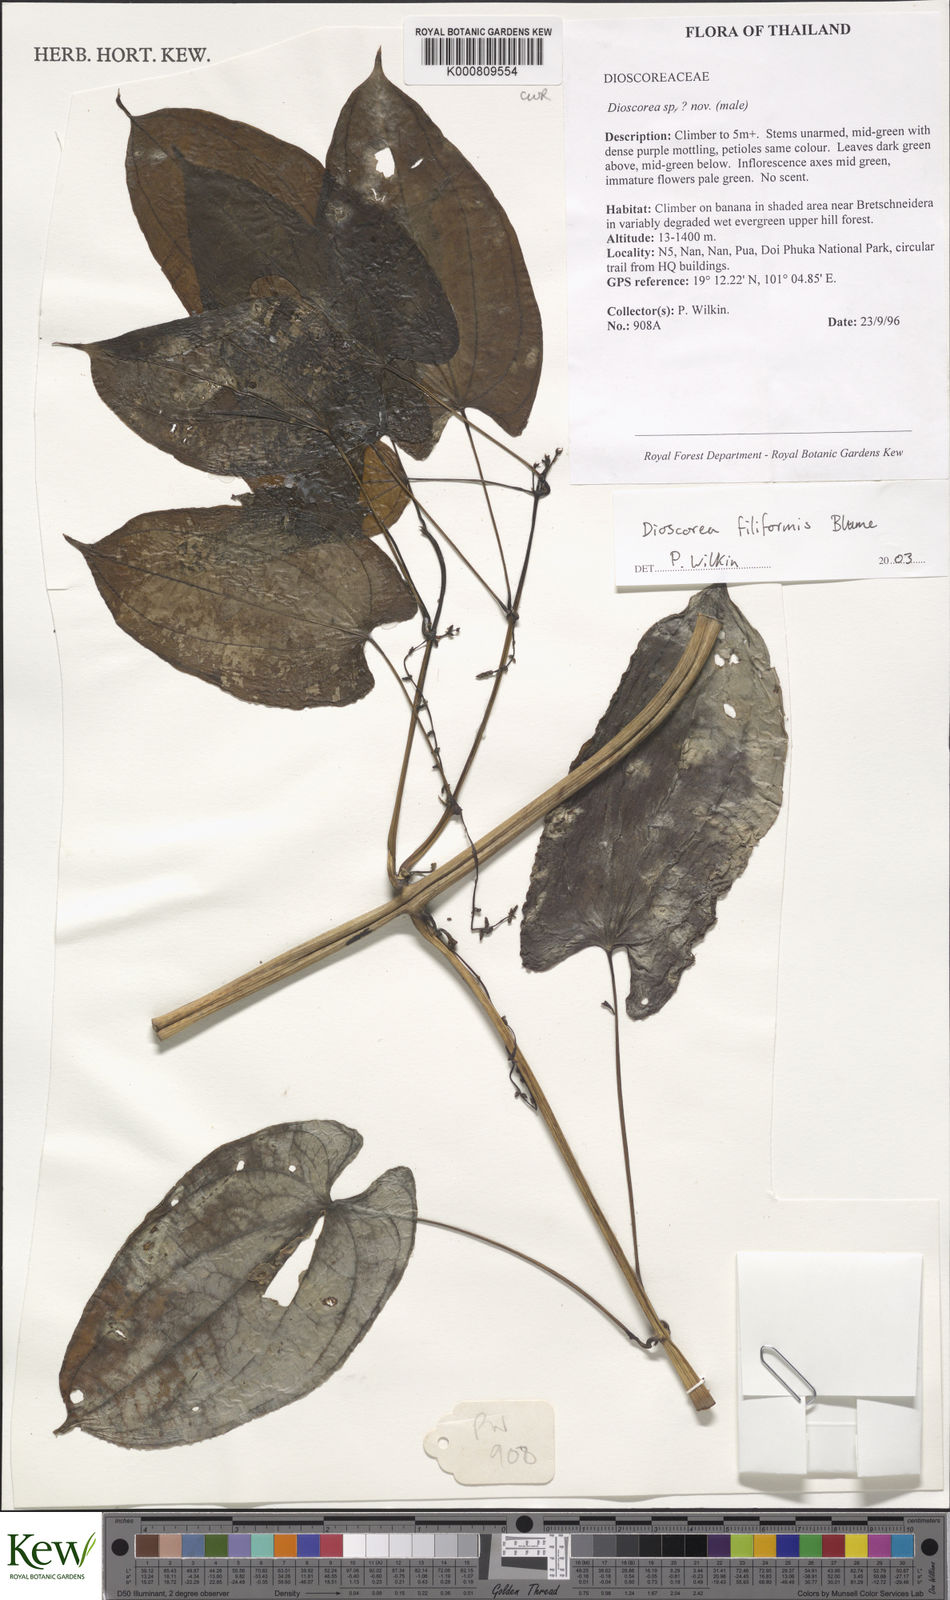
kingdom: Plantae
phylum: Tracheophyta
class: Liliopsida
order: Dioscoreales
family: Dioscoreaceae
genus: Dioscorea
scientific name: Dioscorea filiformis
